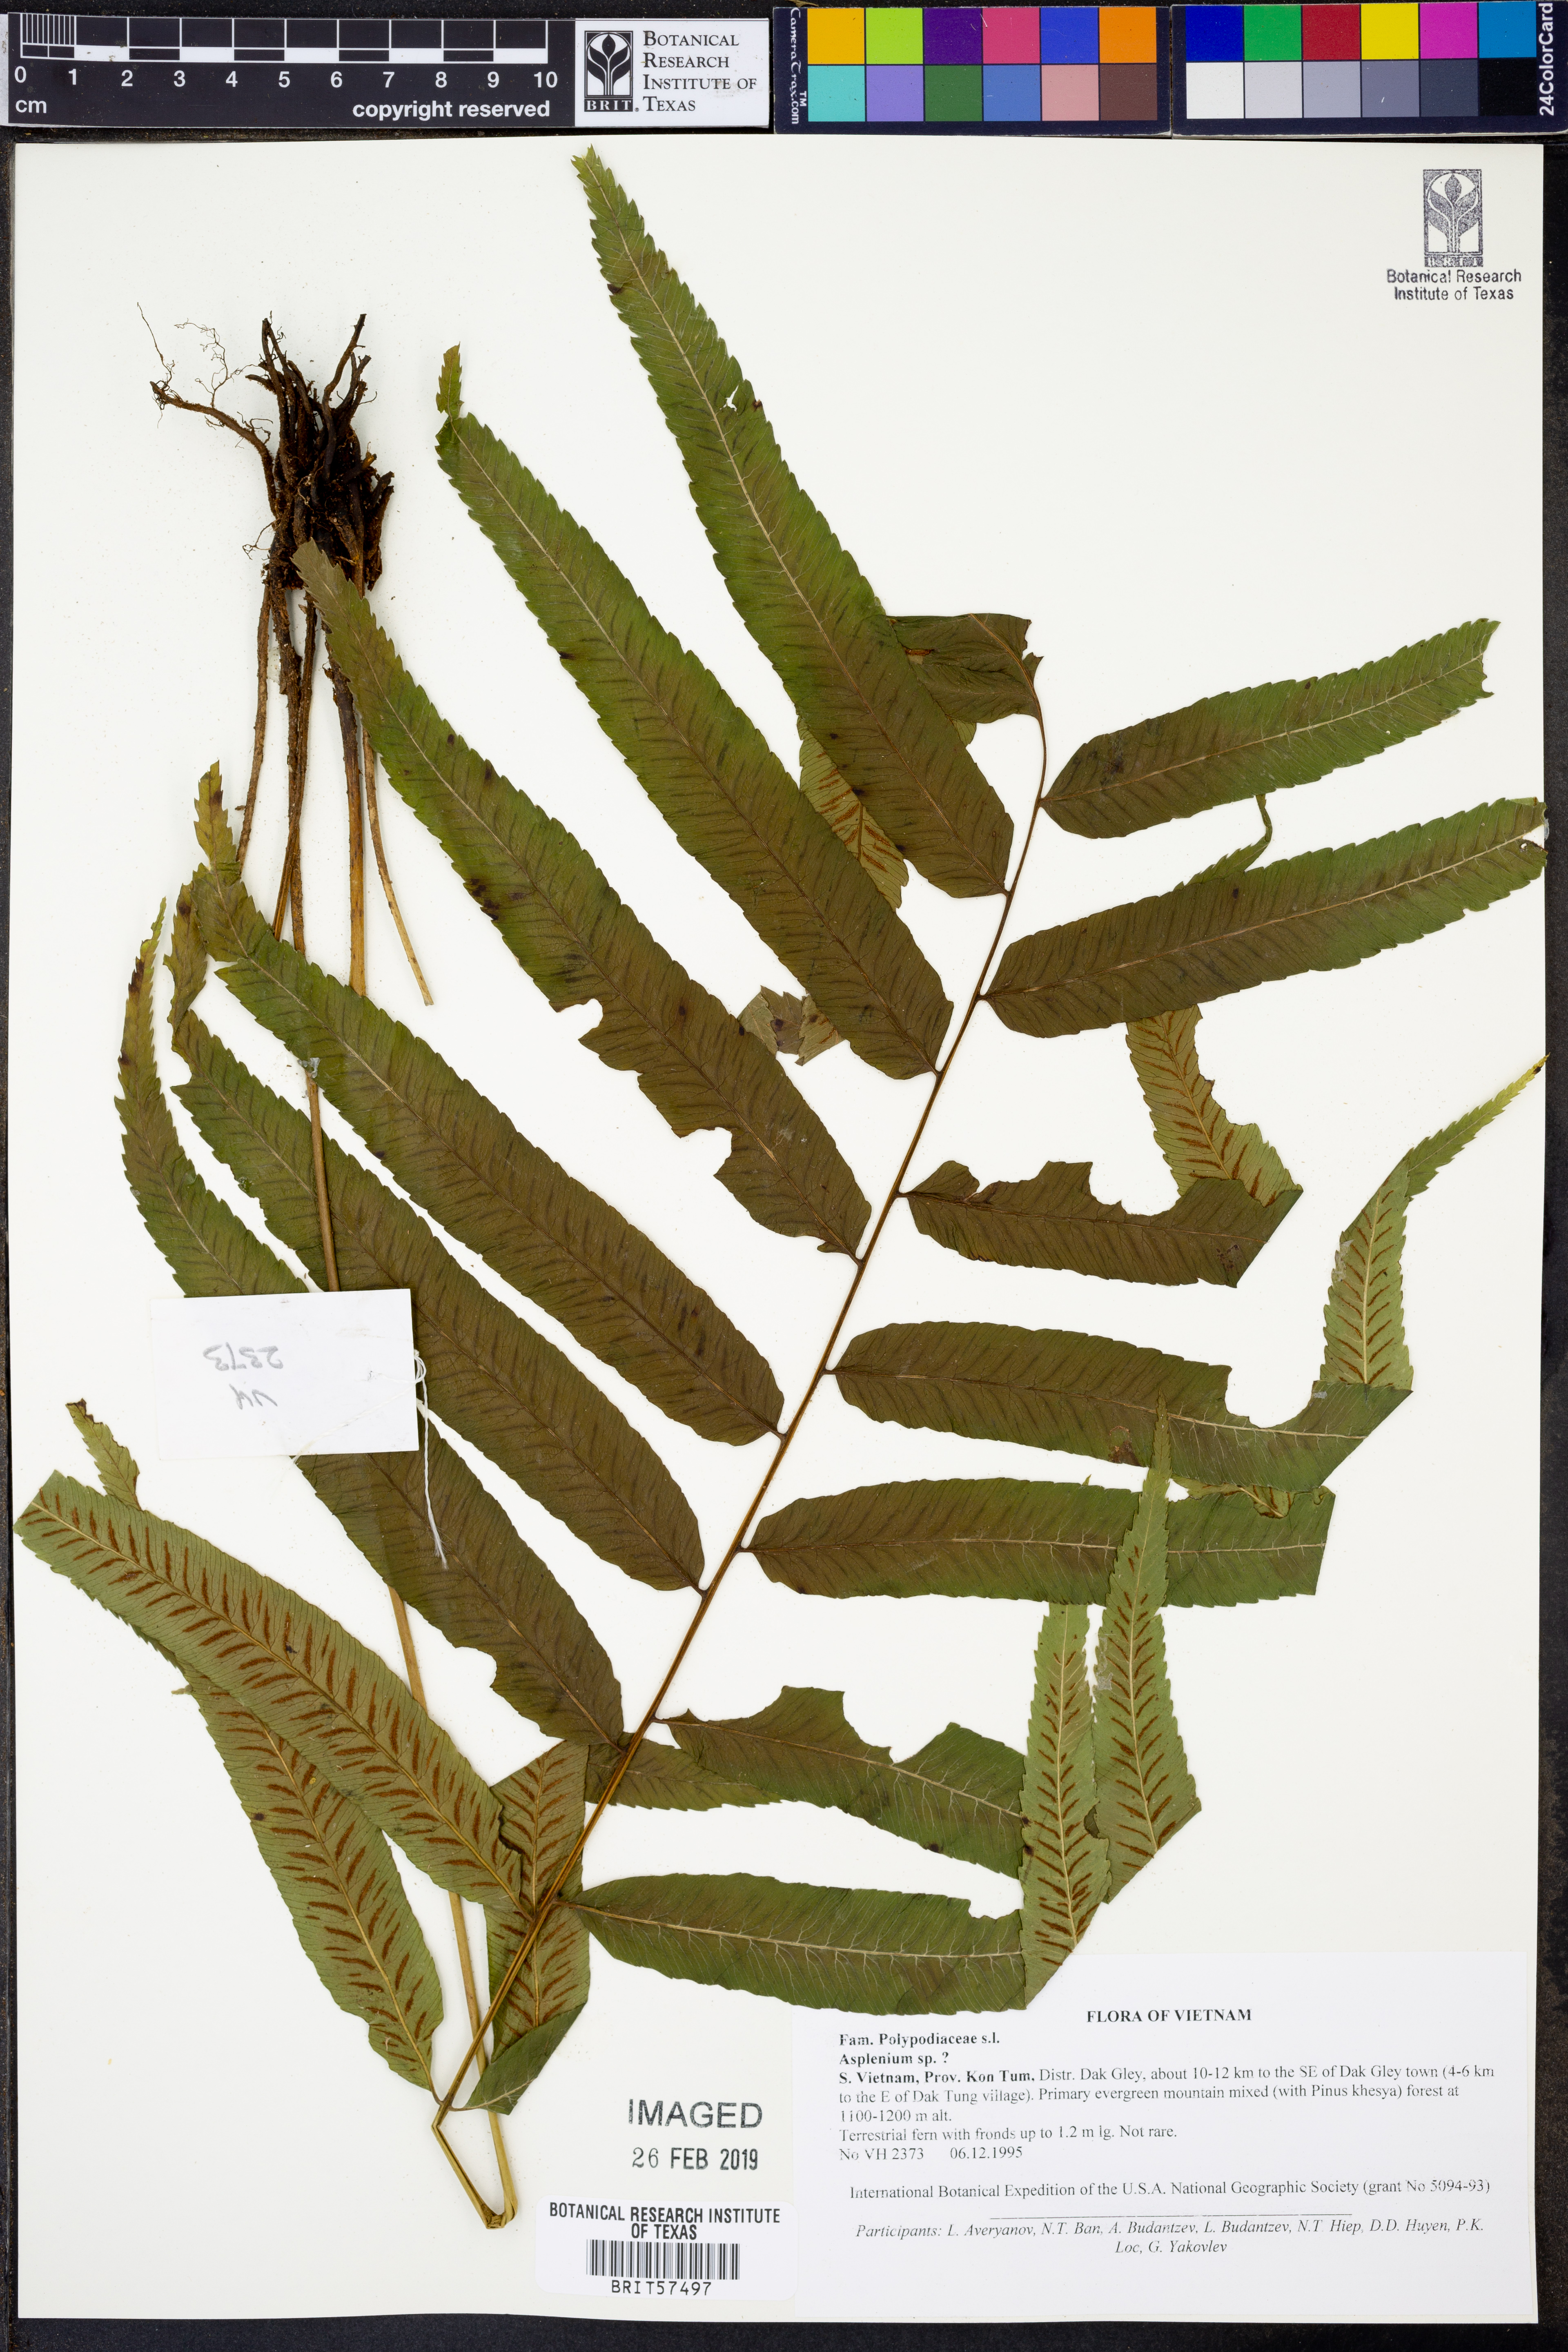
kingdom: Plantae
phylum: Tracheophyta
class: Polypodiopsida
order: Polypodiales
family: Aspleniaceae
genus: Asplenium
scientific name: Asplenium
